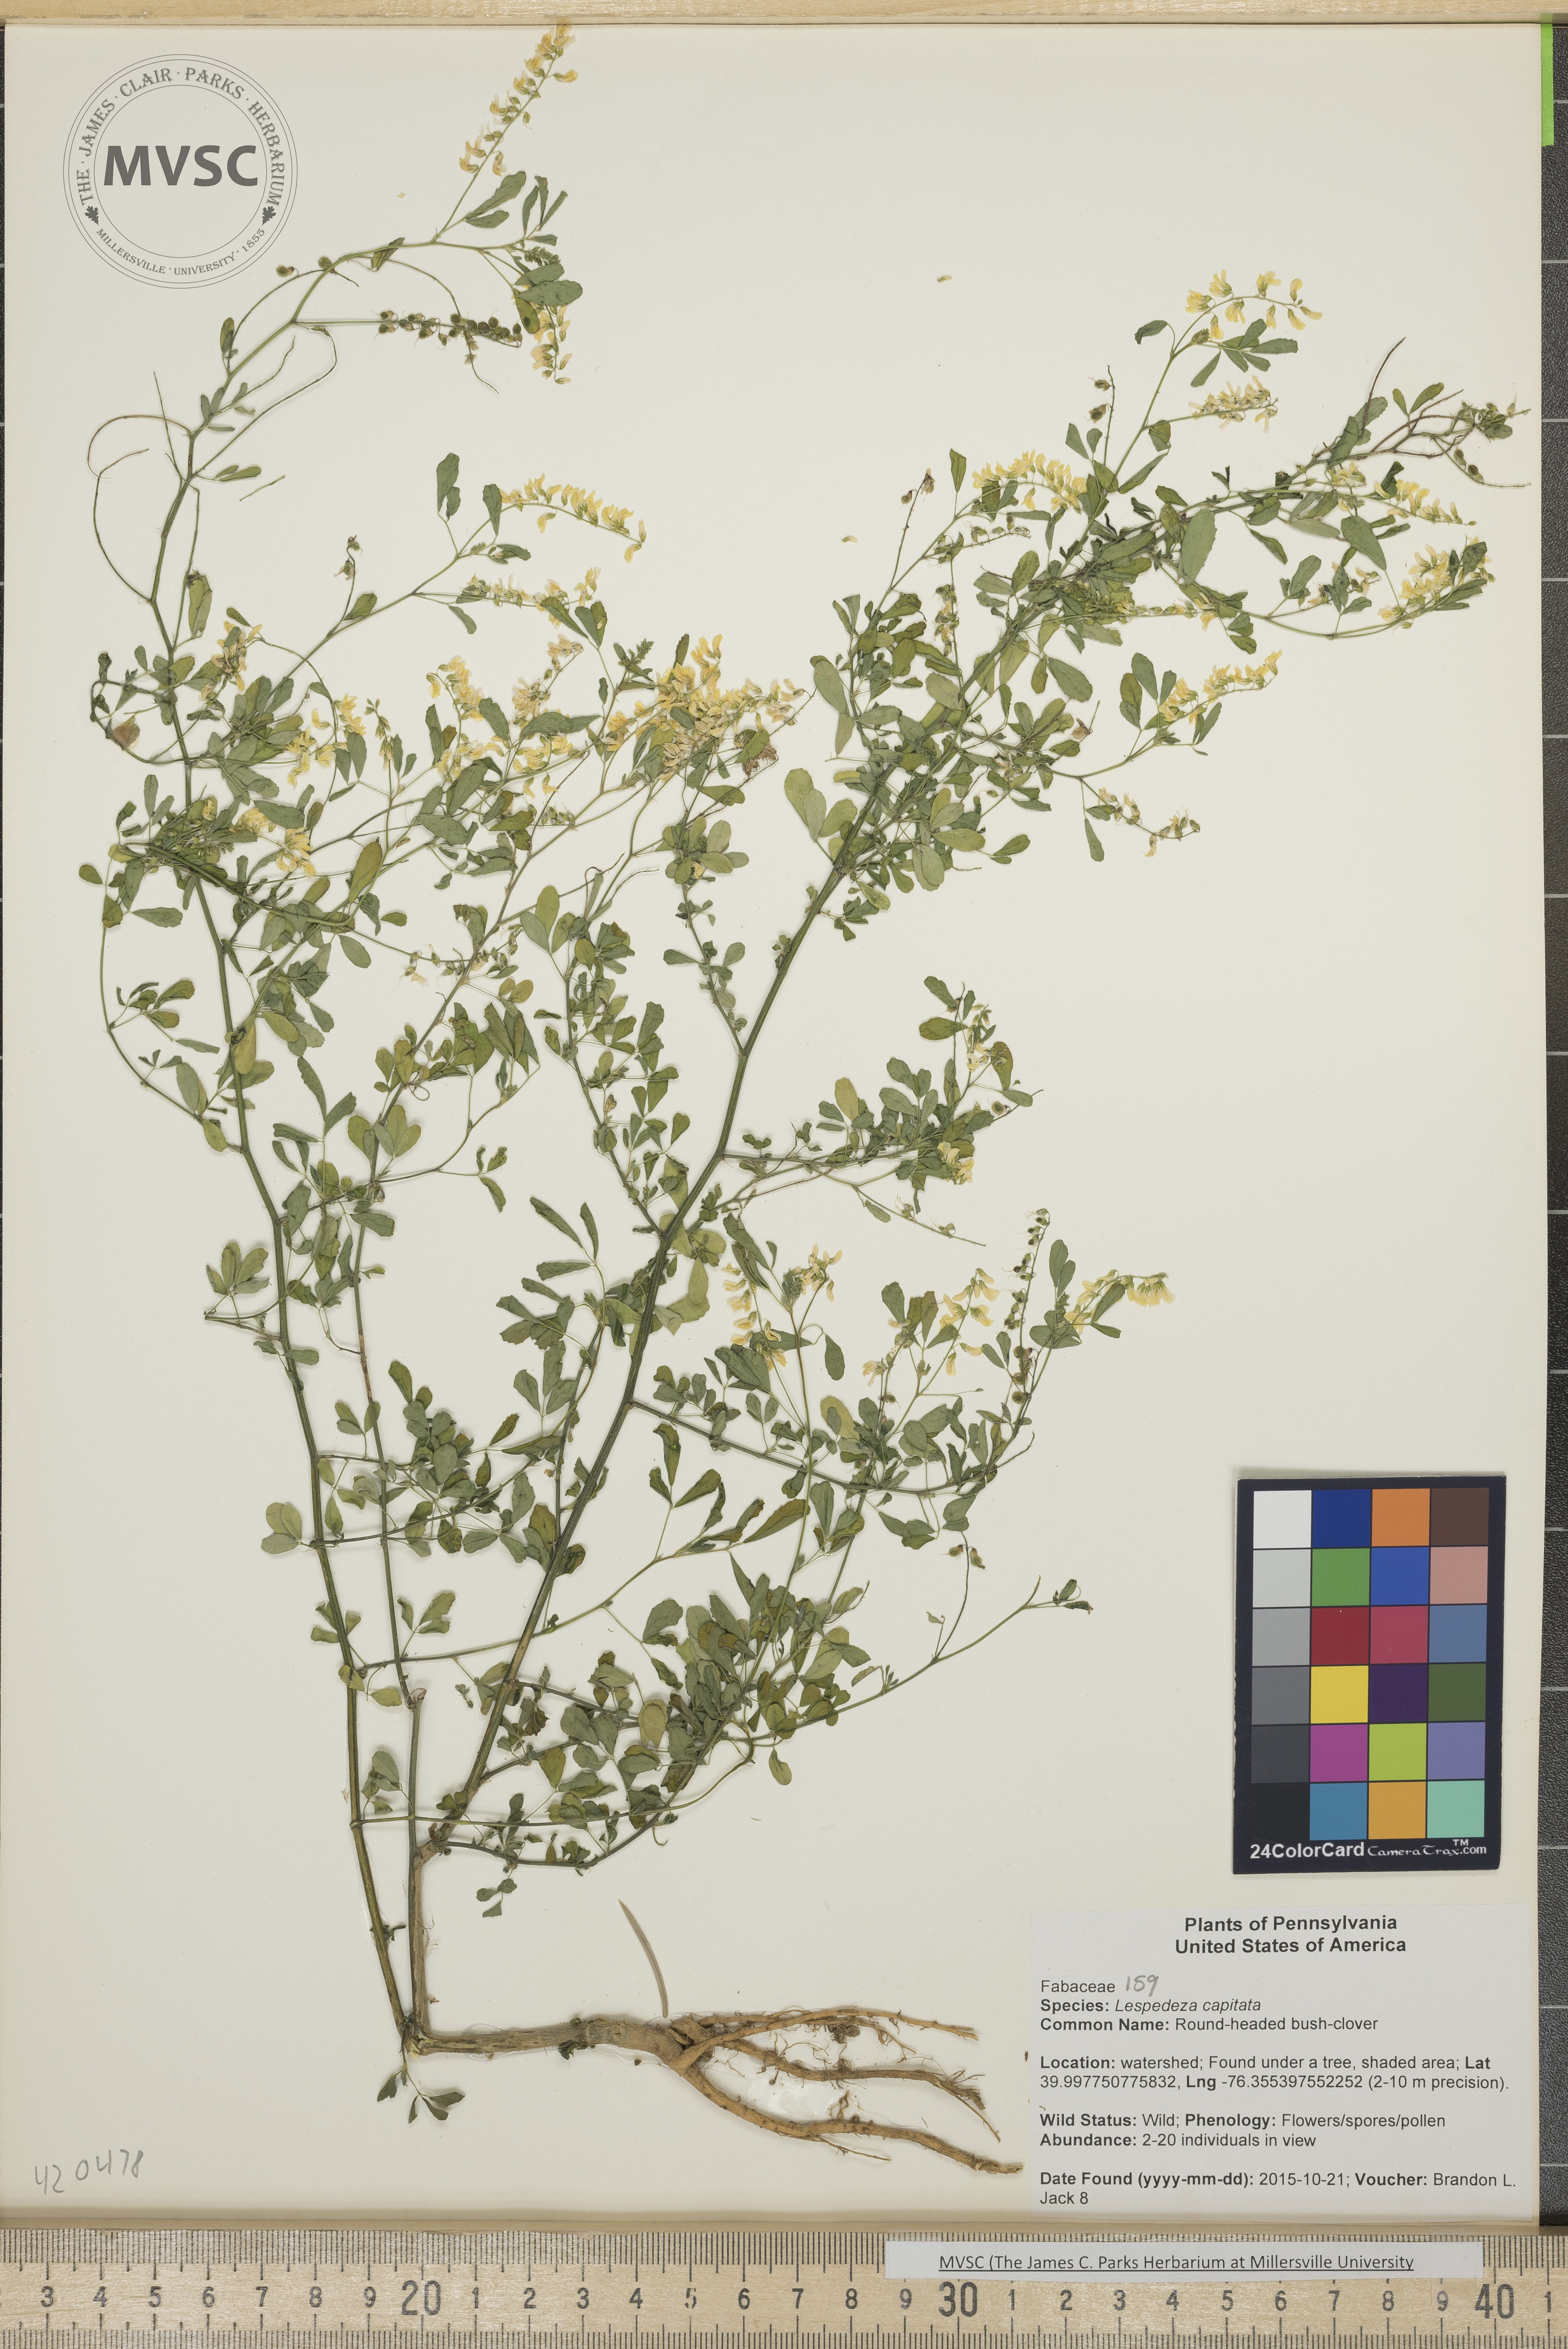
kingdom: Plantae
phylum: Tracheophyta
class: Magnoliopsida
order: Fabales
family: Fabaceae
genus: Melilotus
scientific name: Melilotus officinalis
